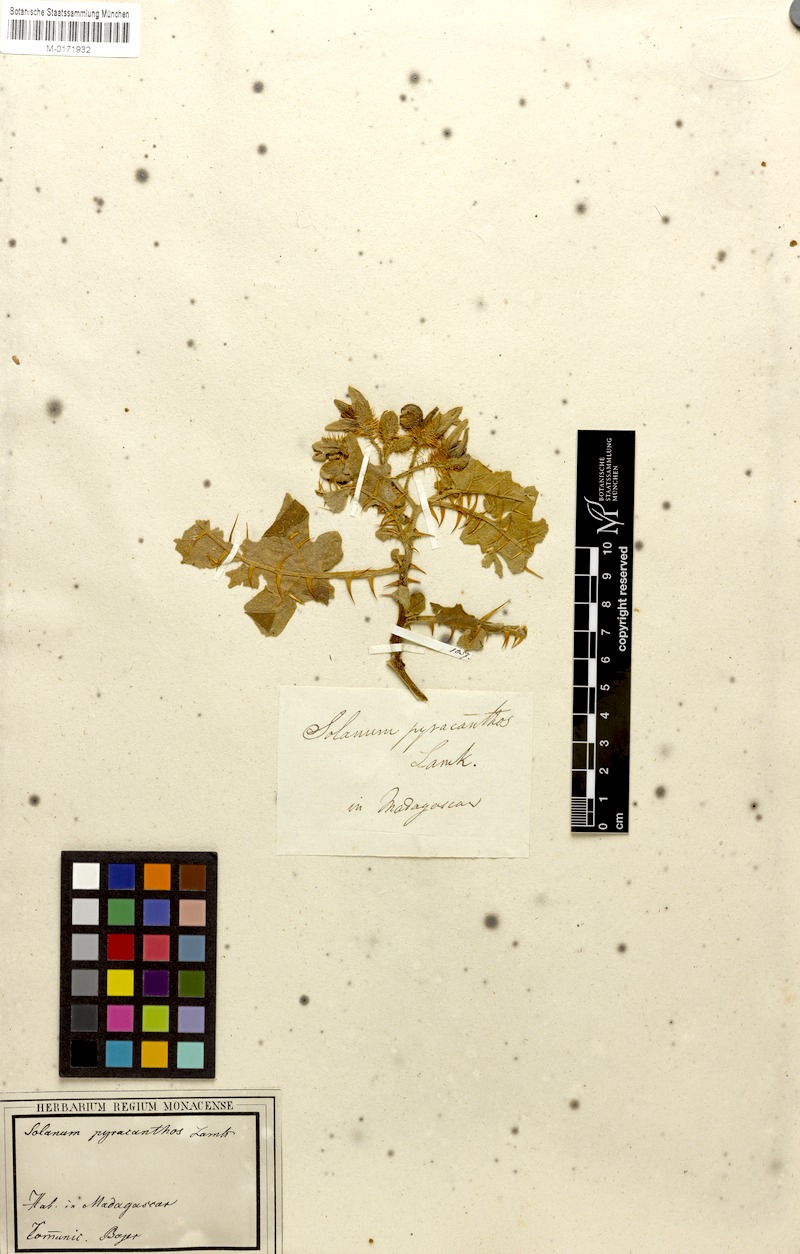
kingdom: Plantae
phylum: Tracheophyta
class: Magnoliopsida
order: Solanales
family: Solanaceae
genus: Solanum
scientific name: Solanum pyracanthos
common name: Porcupine-tomato
